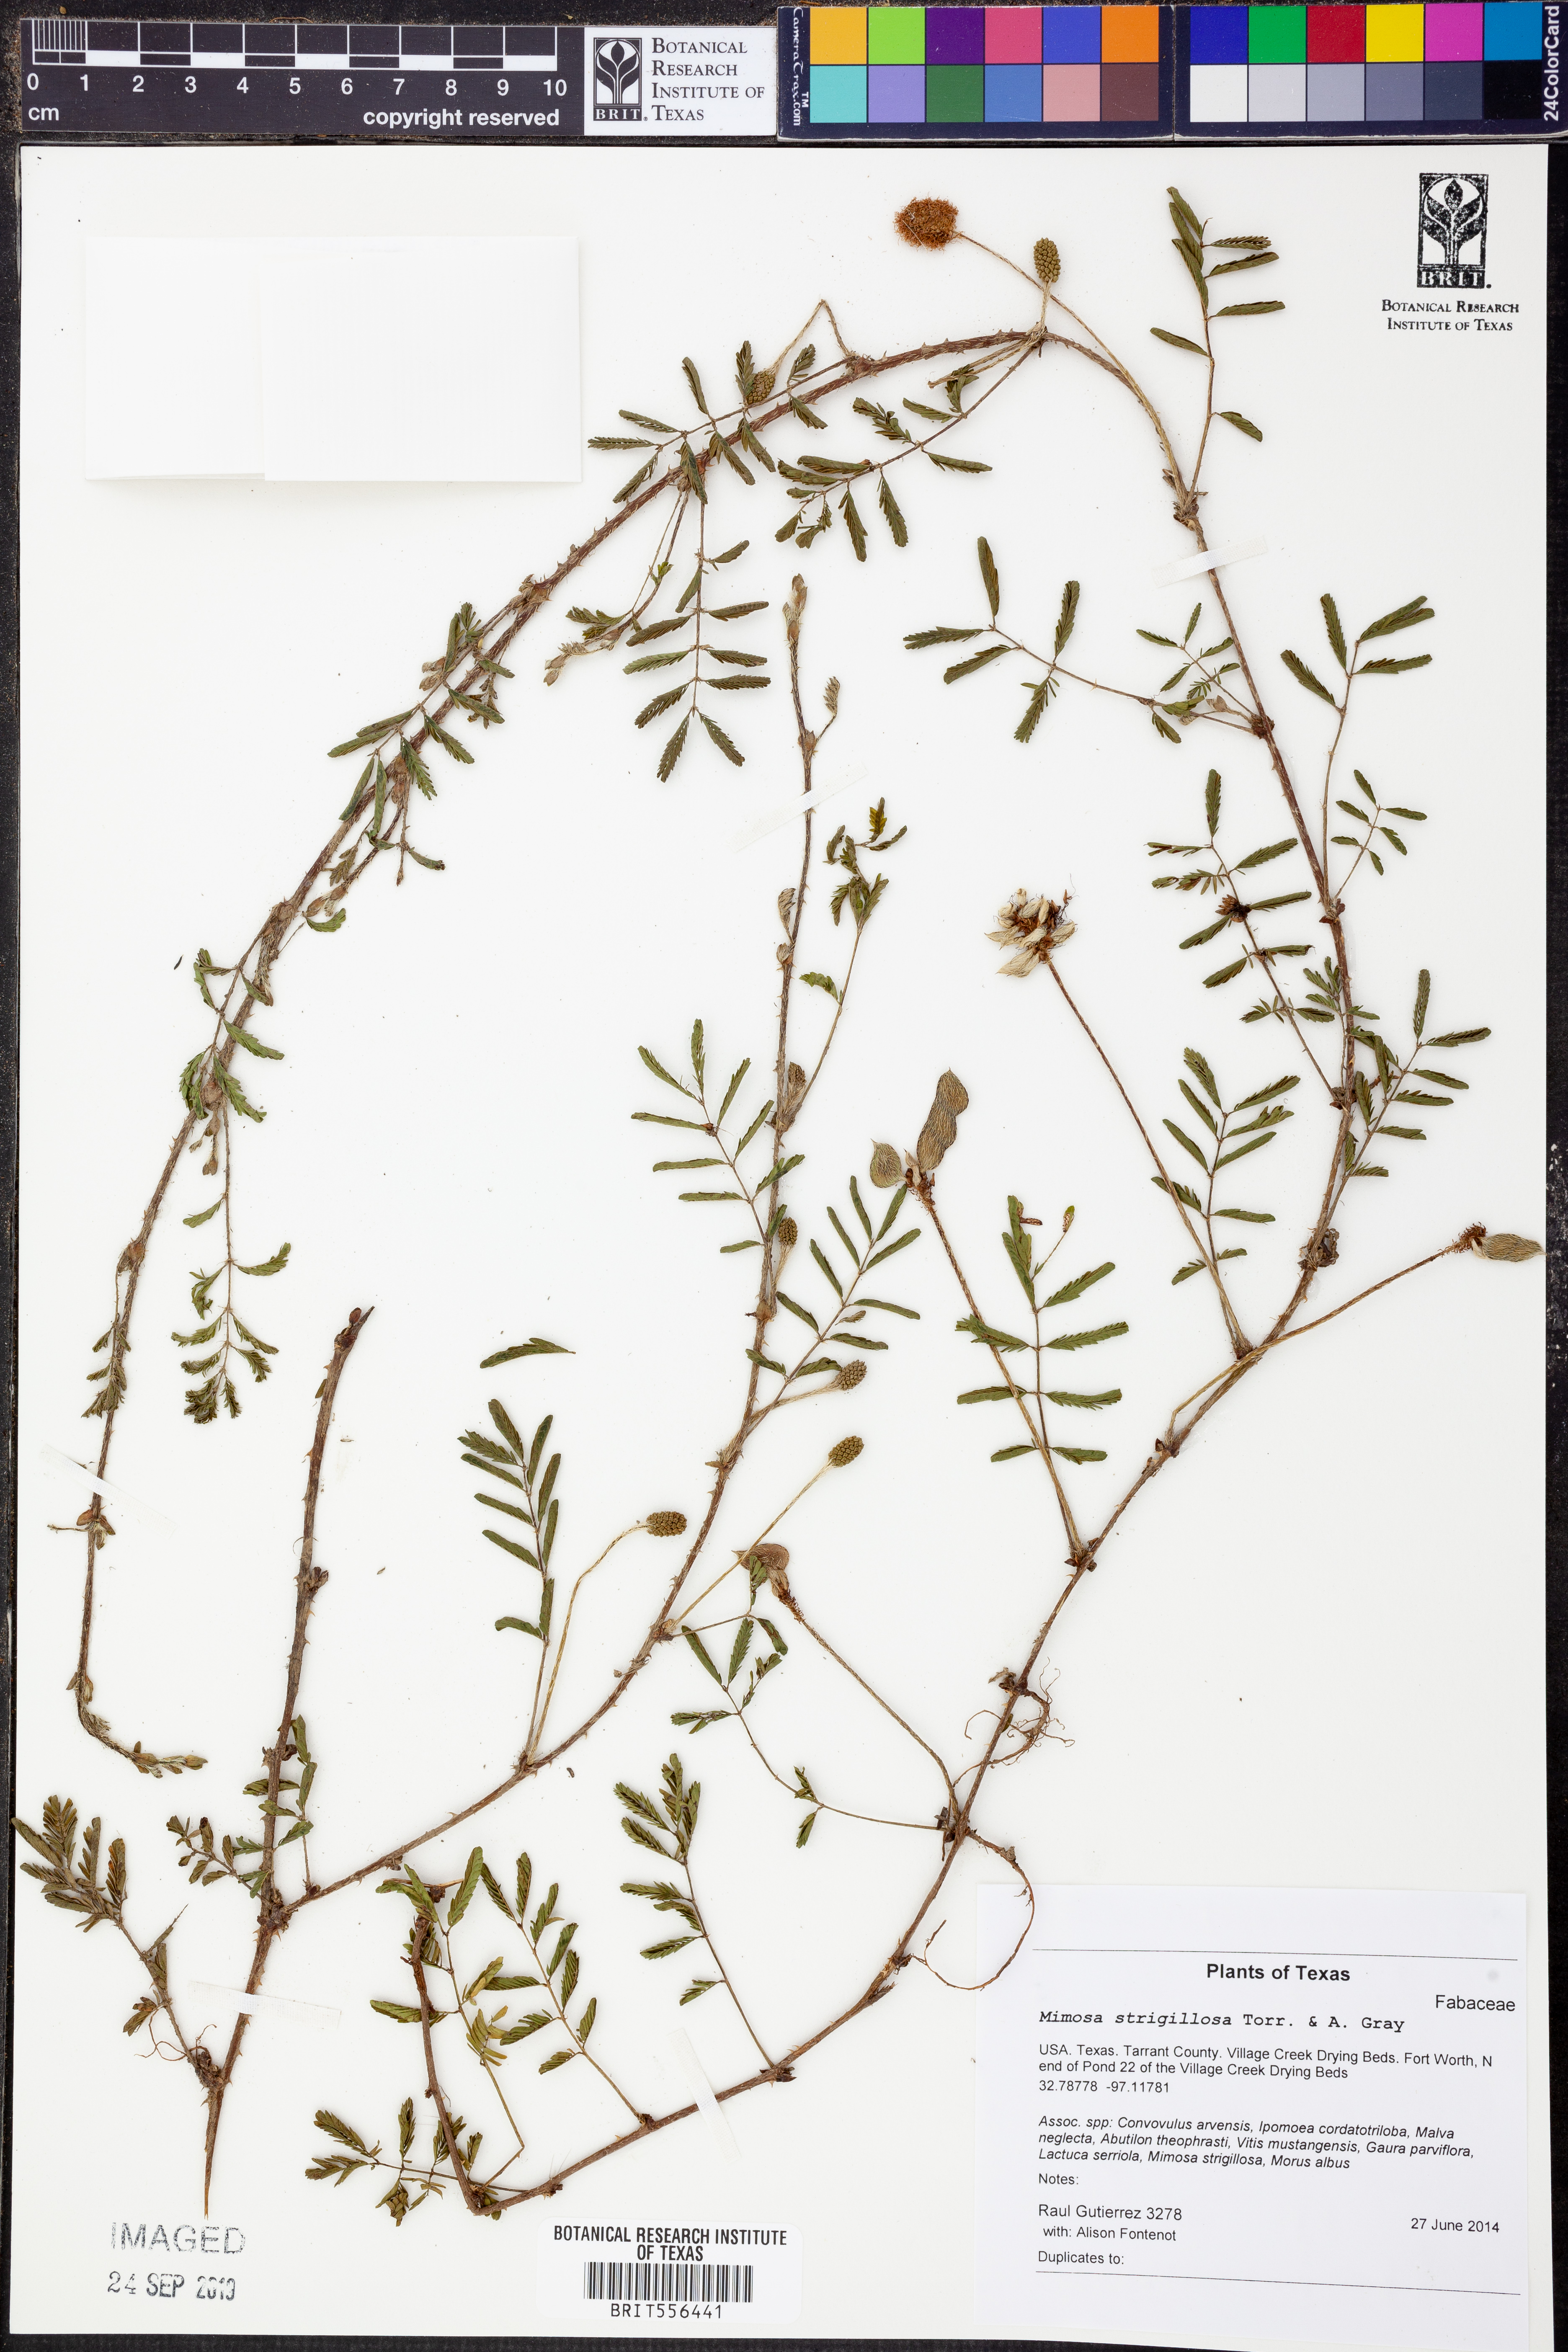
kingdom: Plantae
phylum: Tracheophyta
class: Magnoliopsida
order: Fabales
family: Fabaceae
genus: Mimosa
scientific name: Mimosa strigillosa
